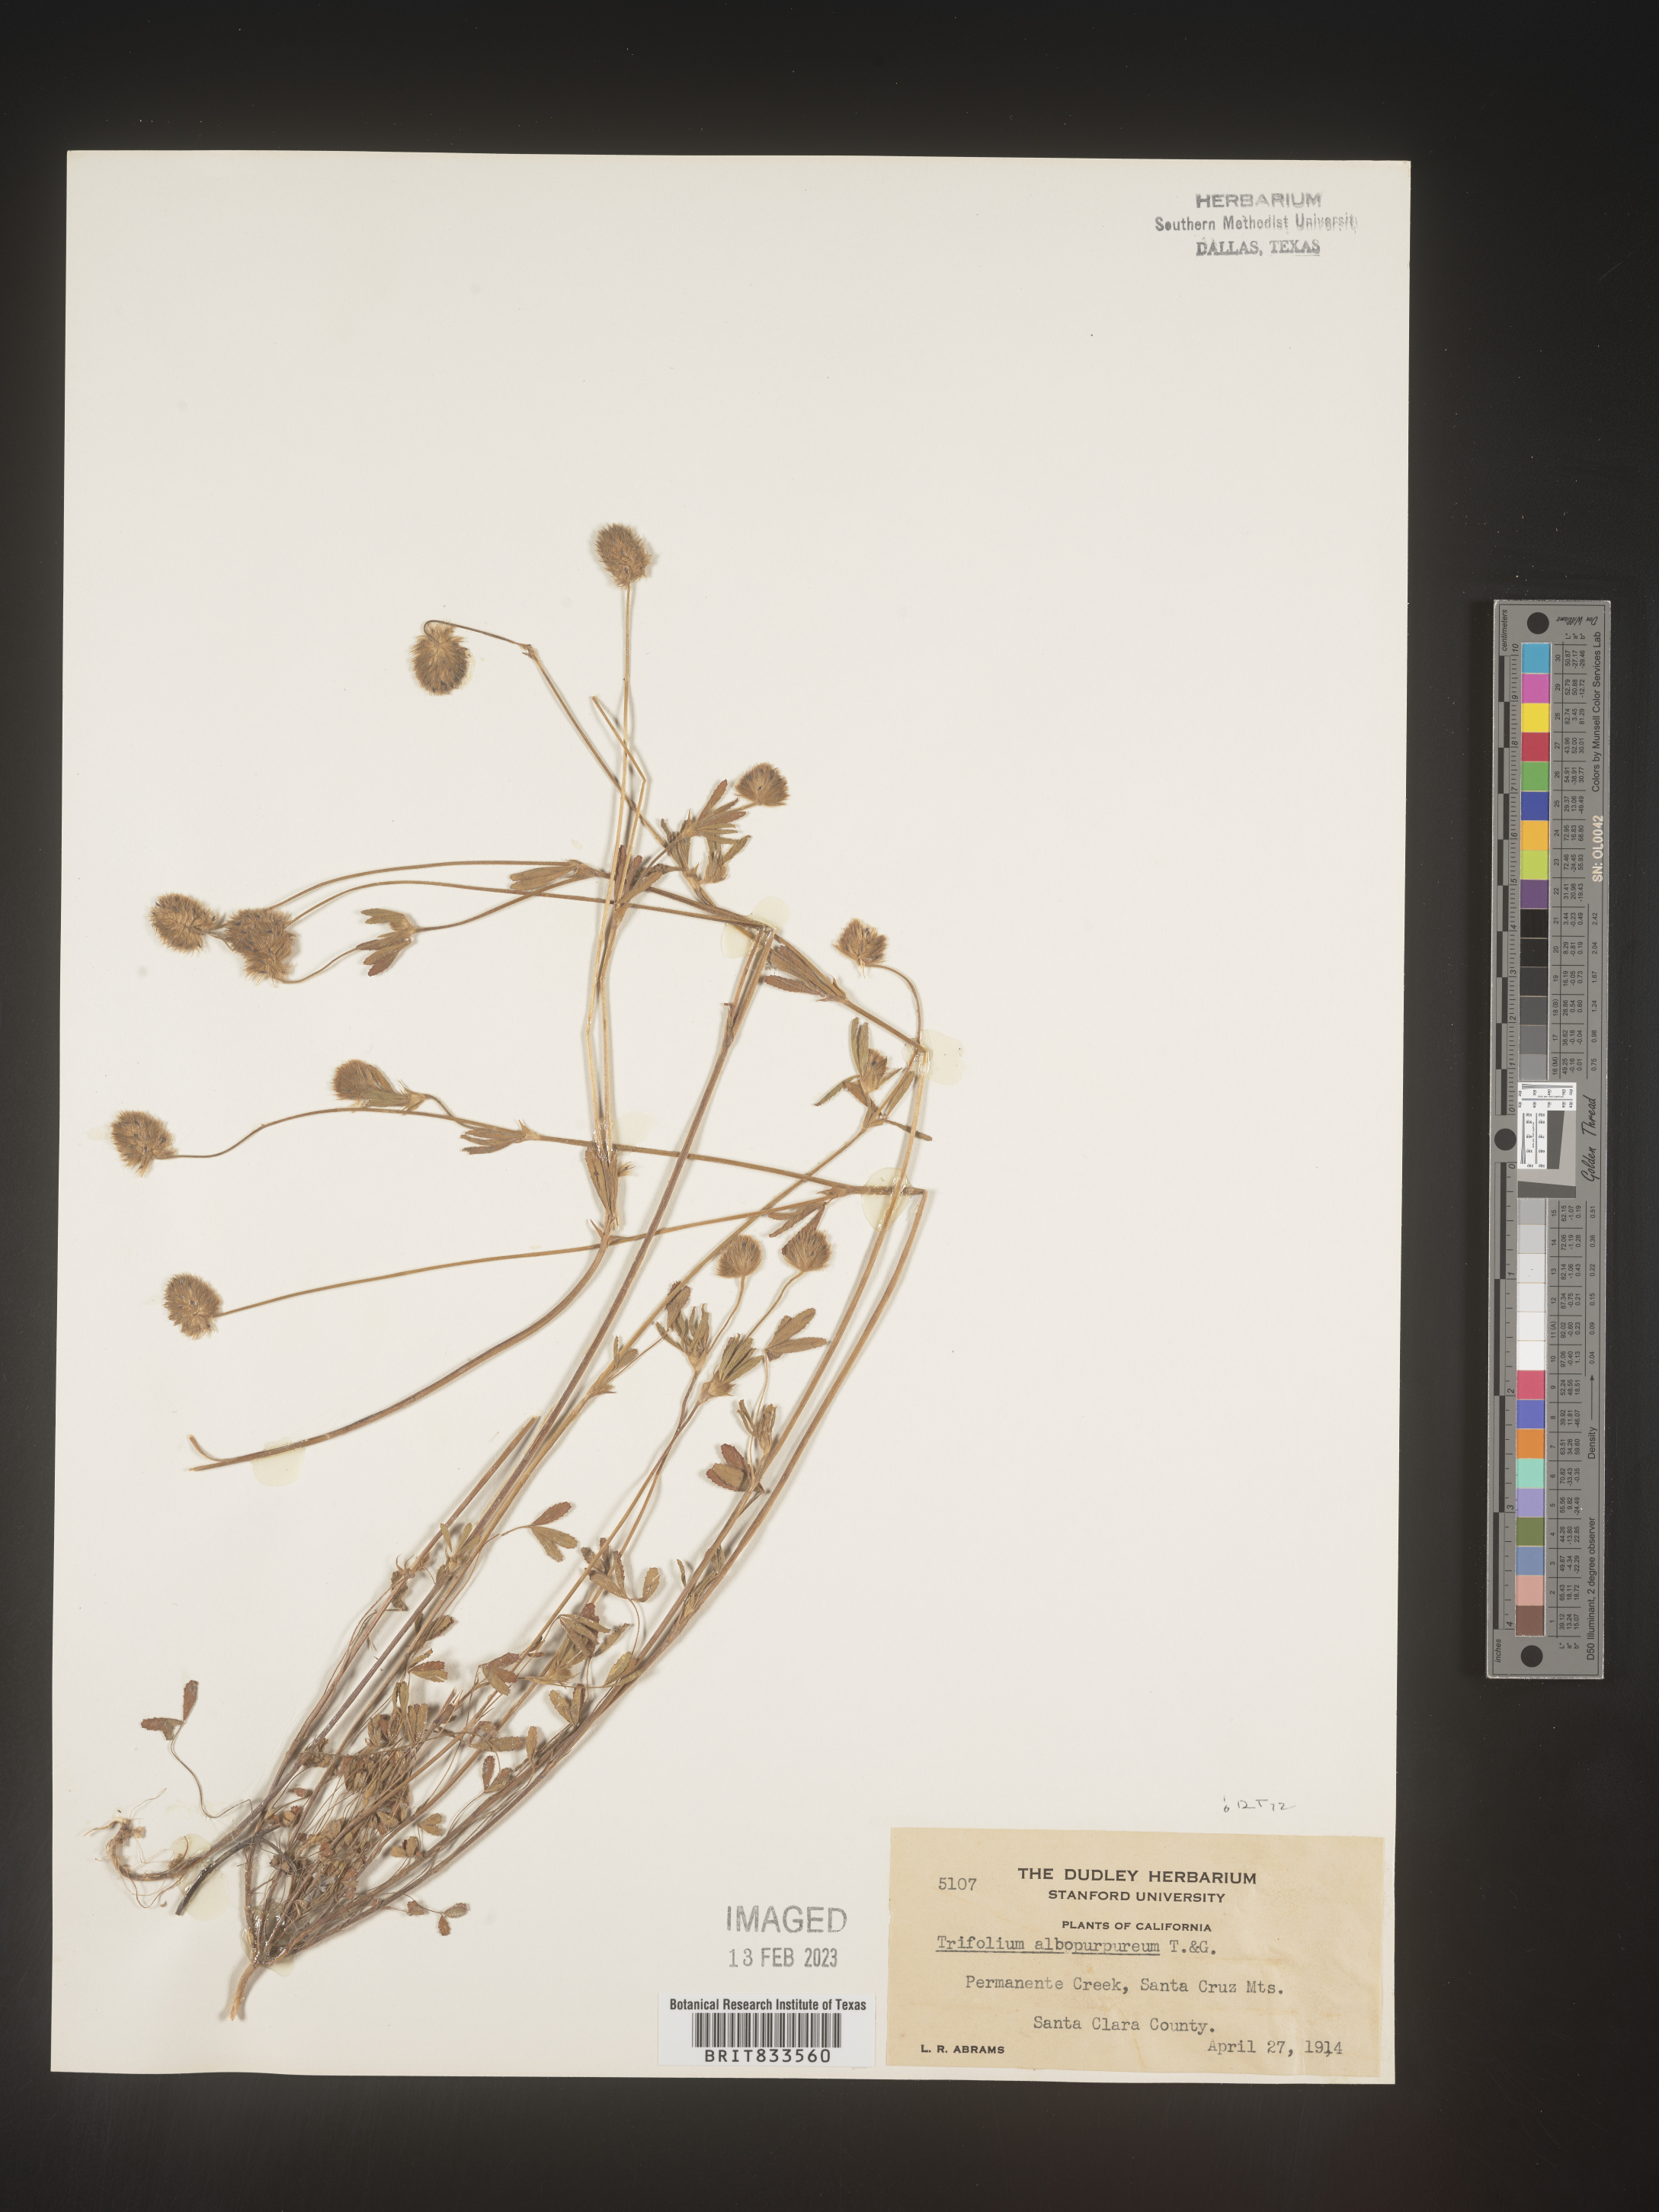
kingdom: Plantae
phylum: Tracheophyta
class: Magnoliopsida
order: Fabales
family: Fabaceae
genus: Trifolium
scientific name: Trifolium
